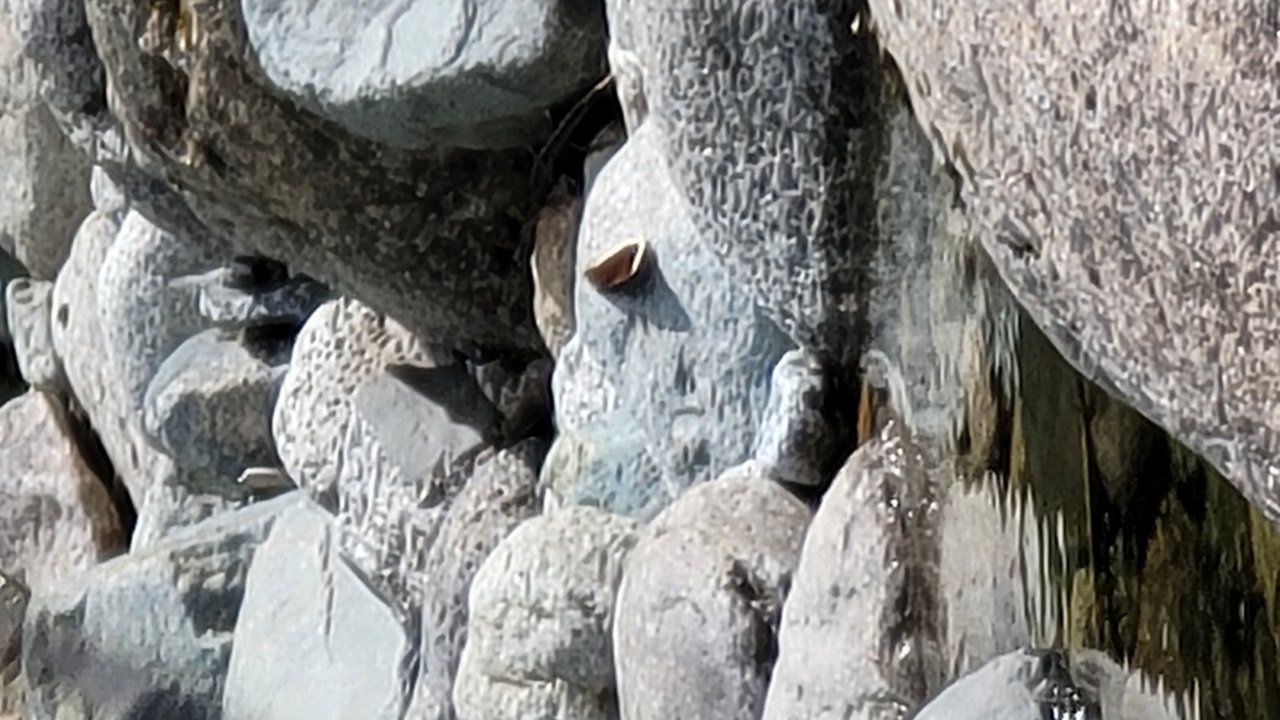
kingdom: Animalia
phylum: Arthropoda
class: Insecta
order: Lepidoptera
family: Nymphalidae
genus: Nymphalis
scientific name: Nymphalis antiopa
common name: Mourning Cloak
